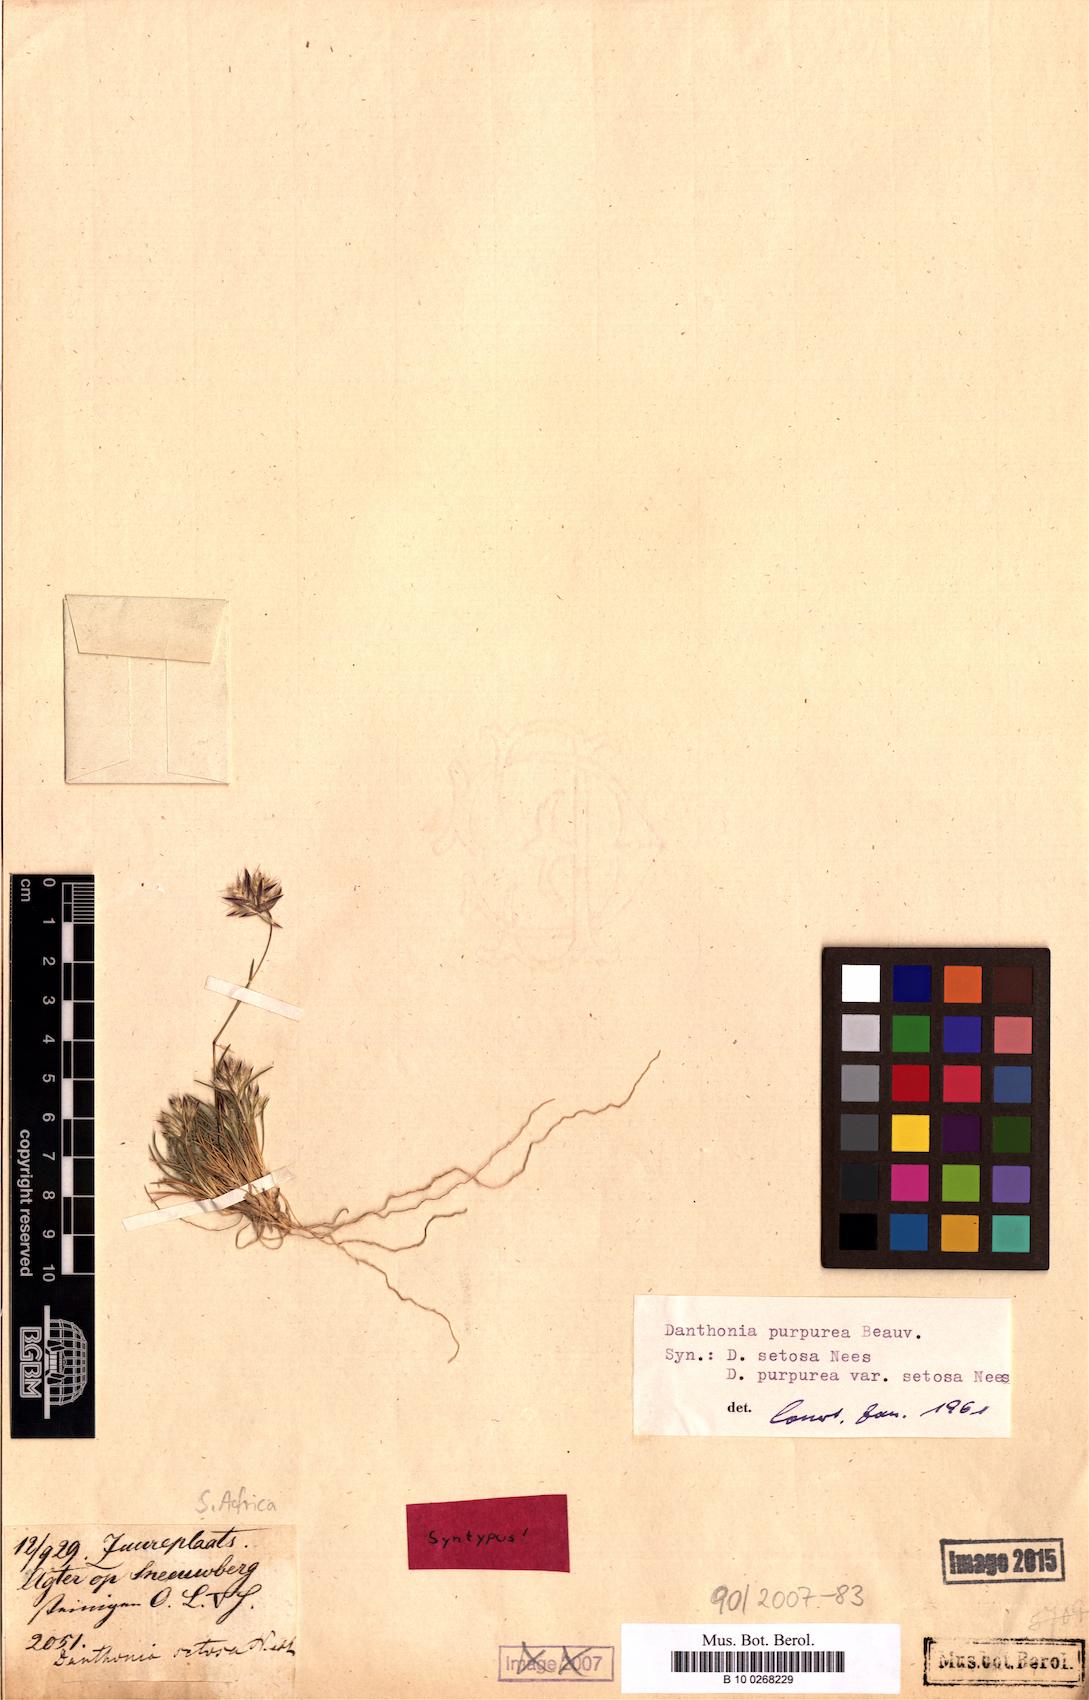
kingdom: Plantae
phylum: Tracheophyta
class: Liliopsida
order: Poales
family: Poaceae
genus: Tribolium
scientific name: Tribolium purpureum
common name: Grass
